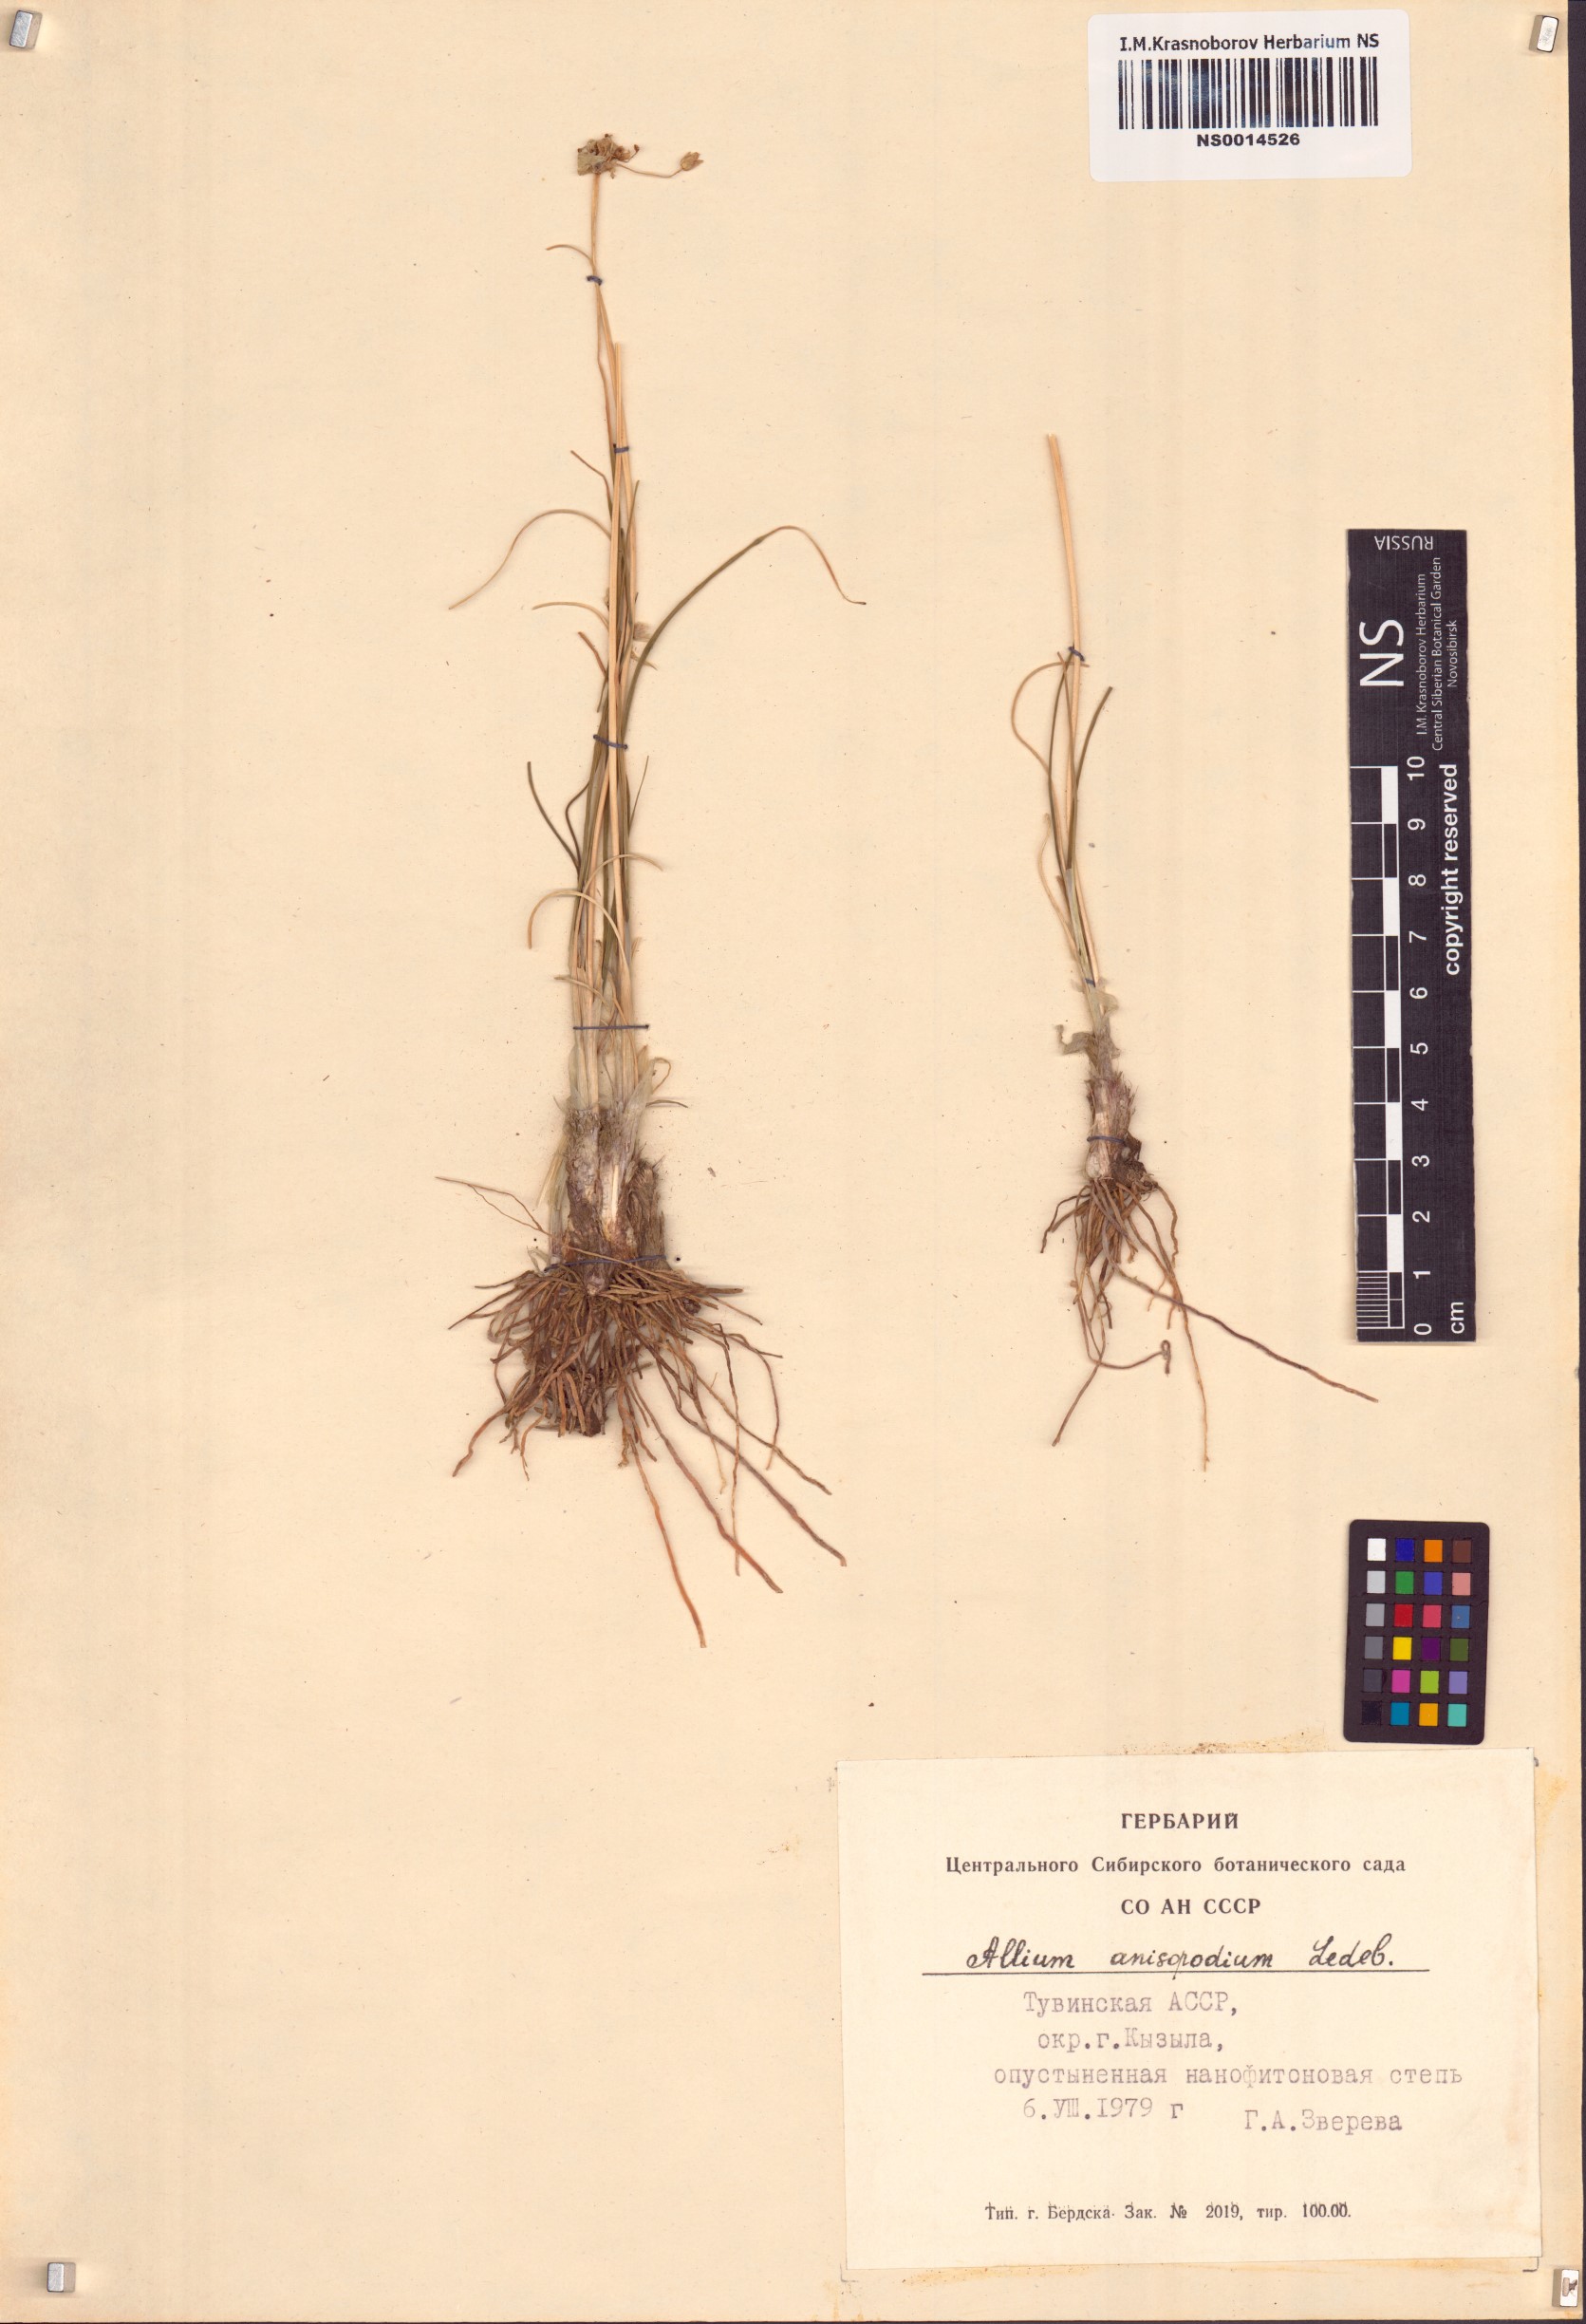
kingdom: Plantae
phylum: Tracheophyta
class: Liliopsida
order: Asparagales
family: Amaryllidaceae
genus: Allium
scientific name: Allium anisopodium
